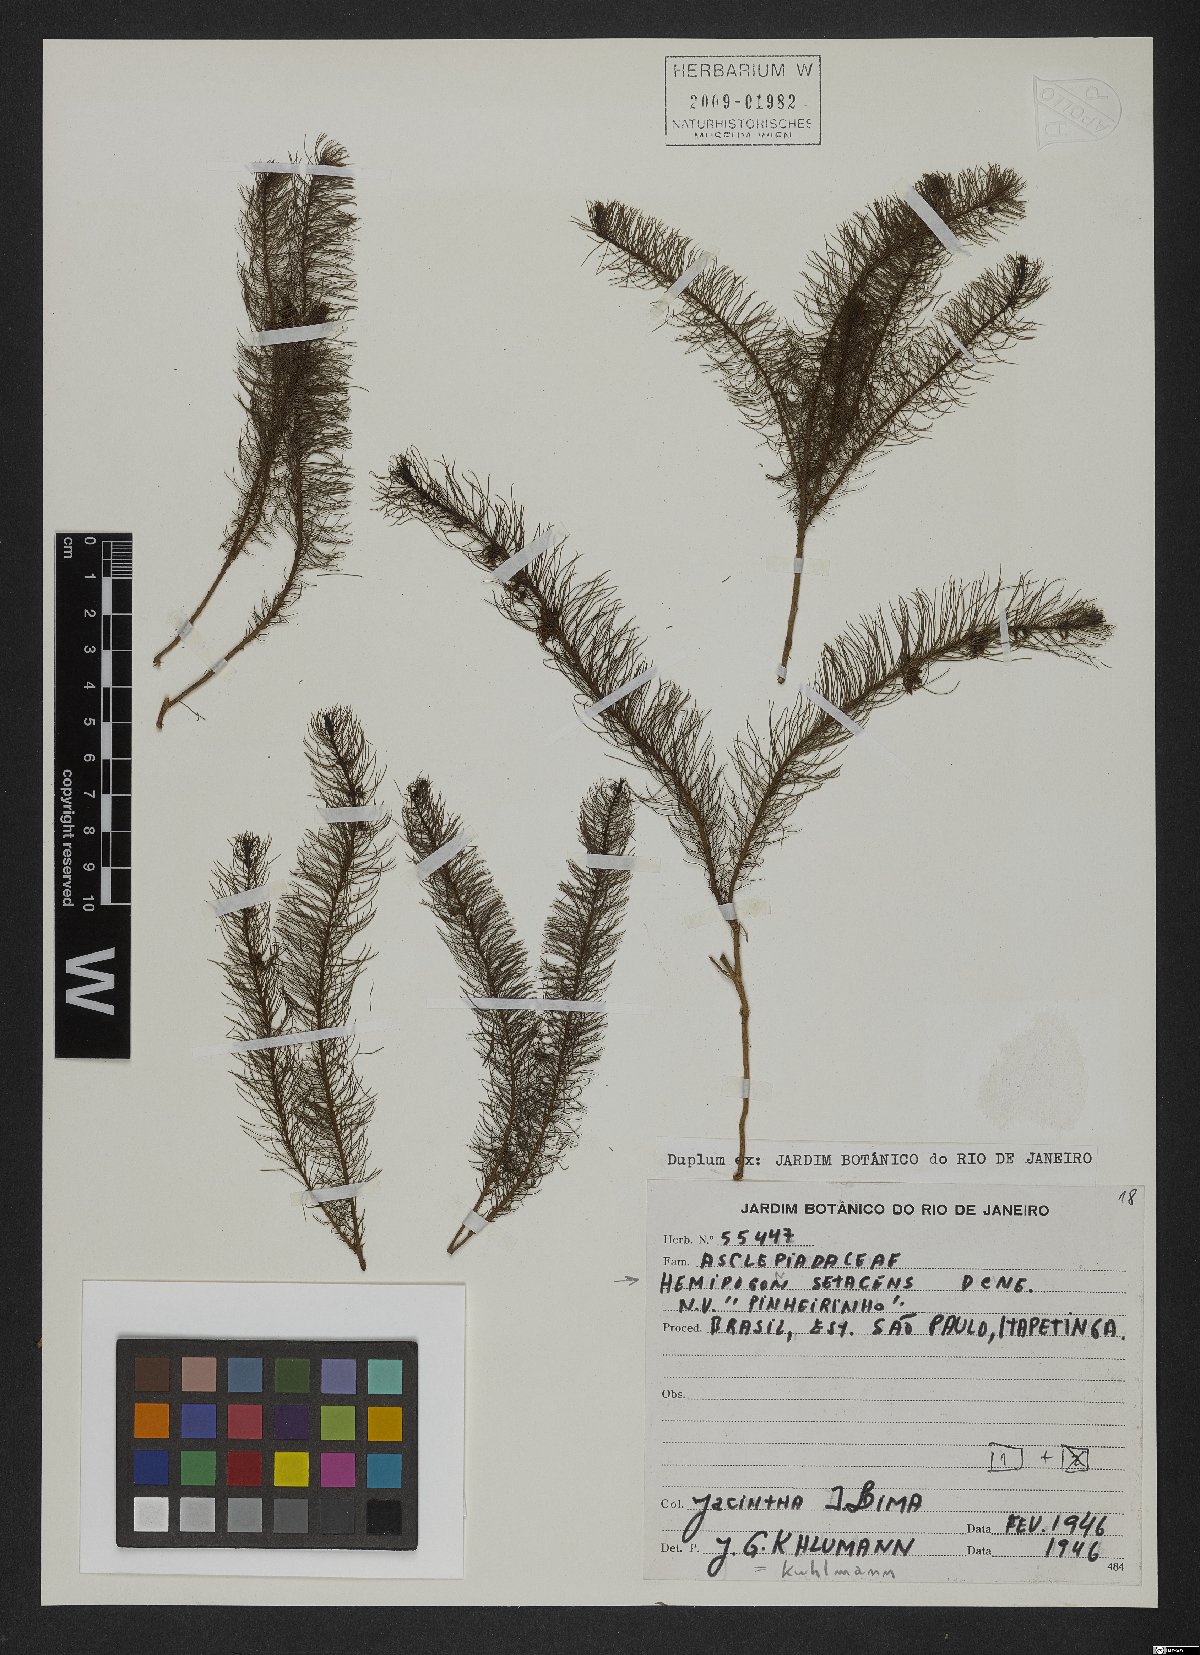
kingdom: Plantae
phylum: Tracheophyta
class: Magnoliopsida
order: Gentianales
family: Apocynaceae
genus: Hemipogon
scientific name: Hemipogon setaceus
